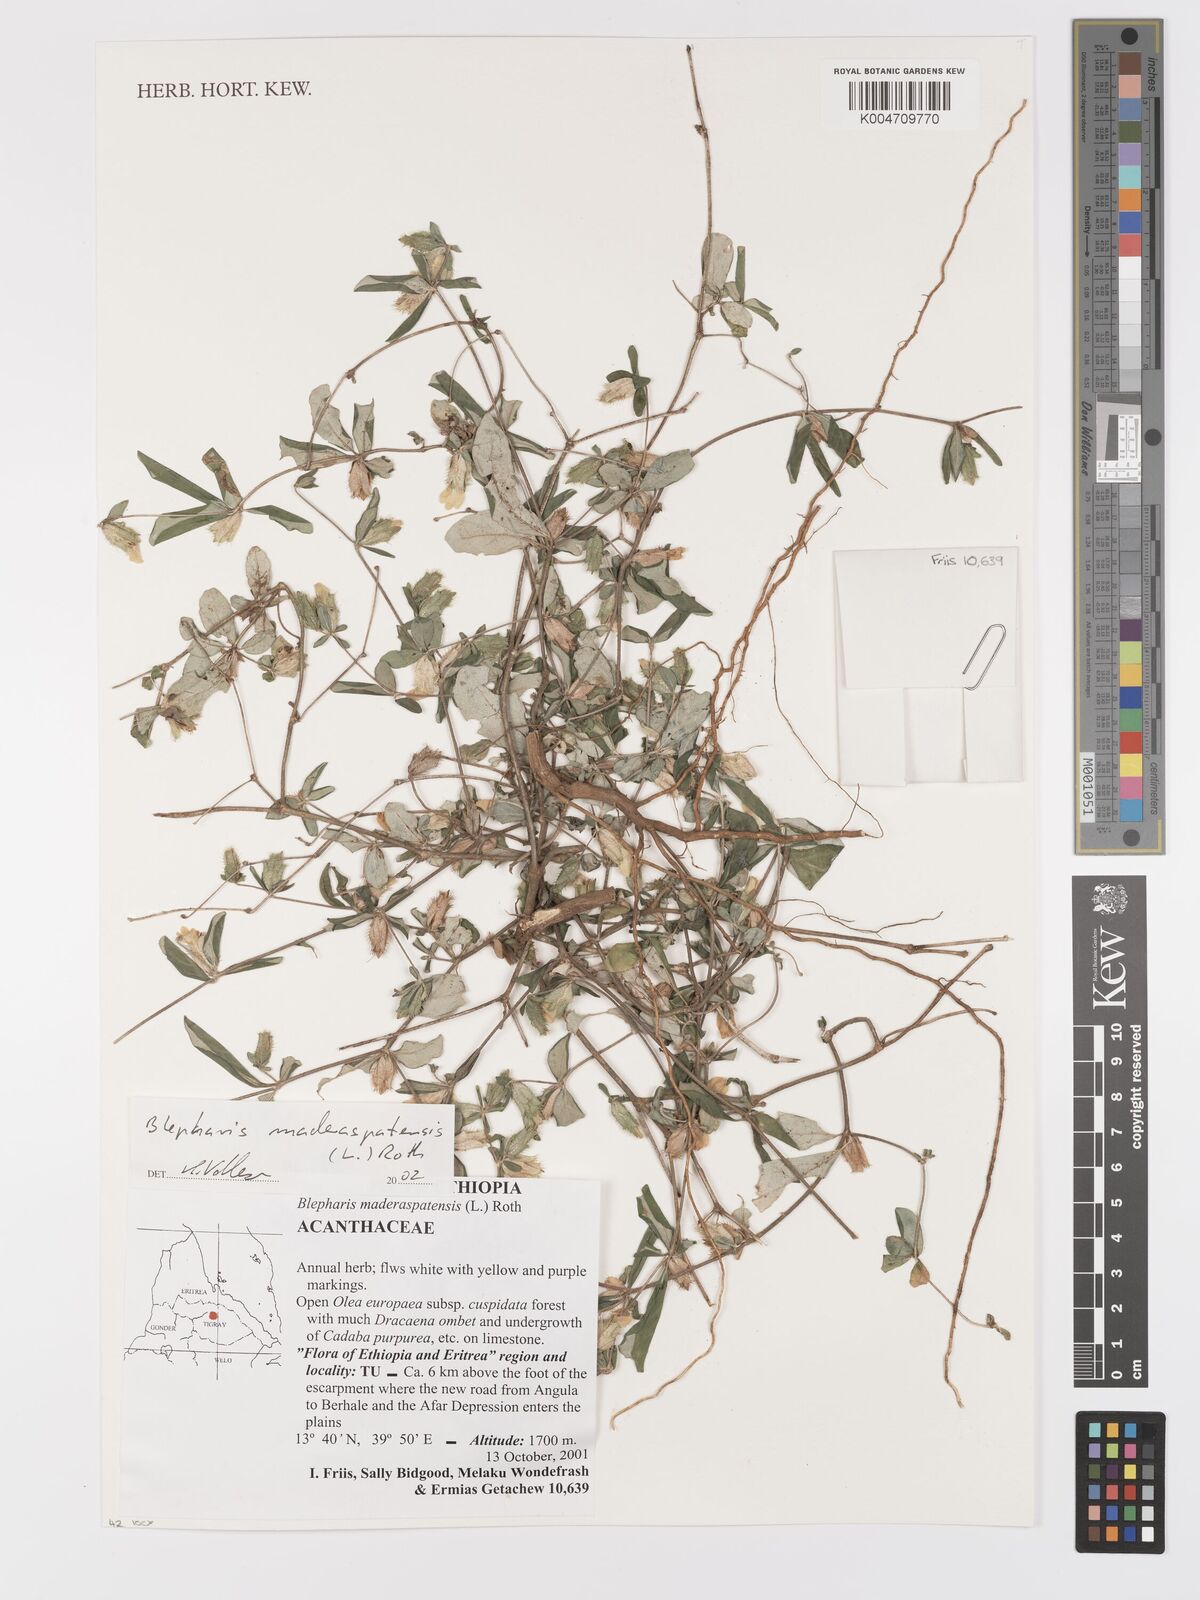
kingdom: Plantae
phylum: Tracheophyta
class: Magnoliopsida
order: Lamiales
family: Acanthaceae
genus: Blepharis
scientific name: Blepharis maderaspatensis
